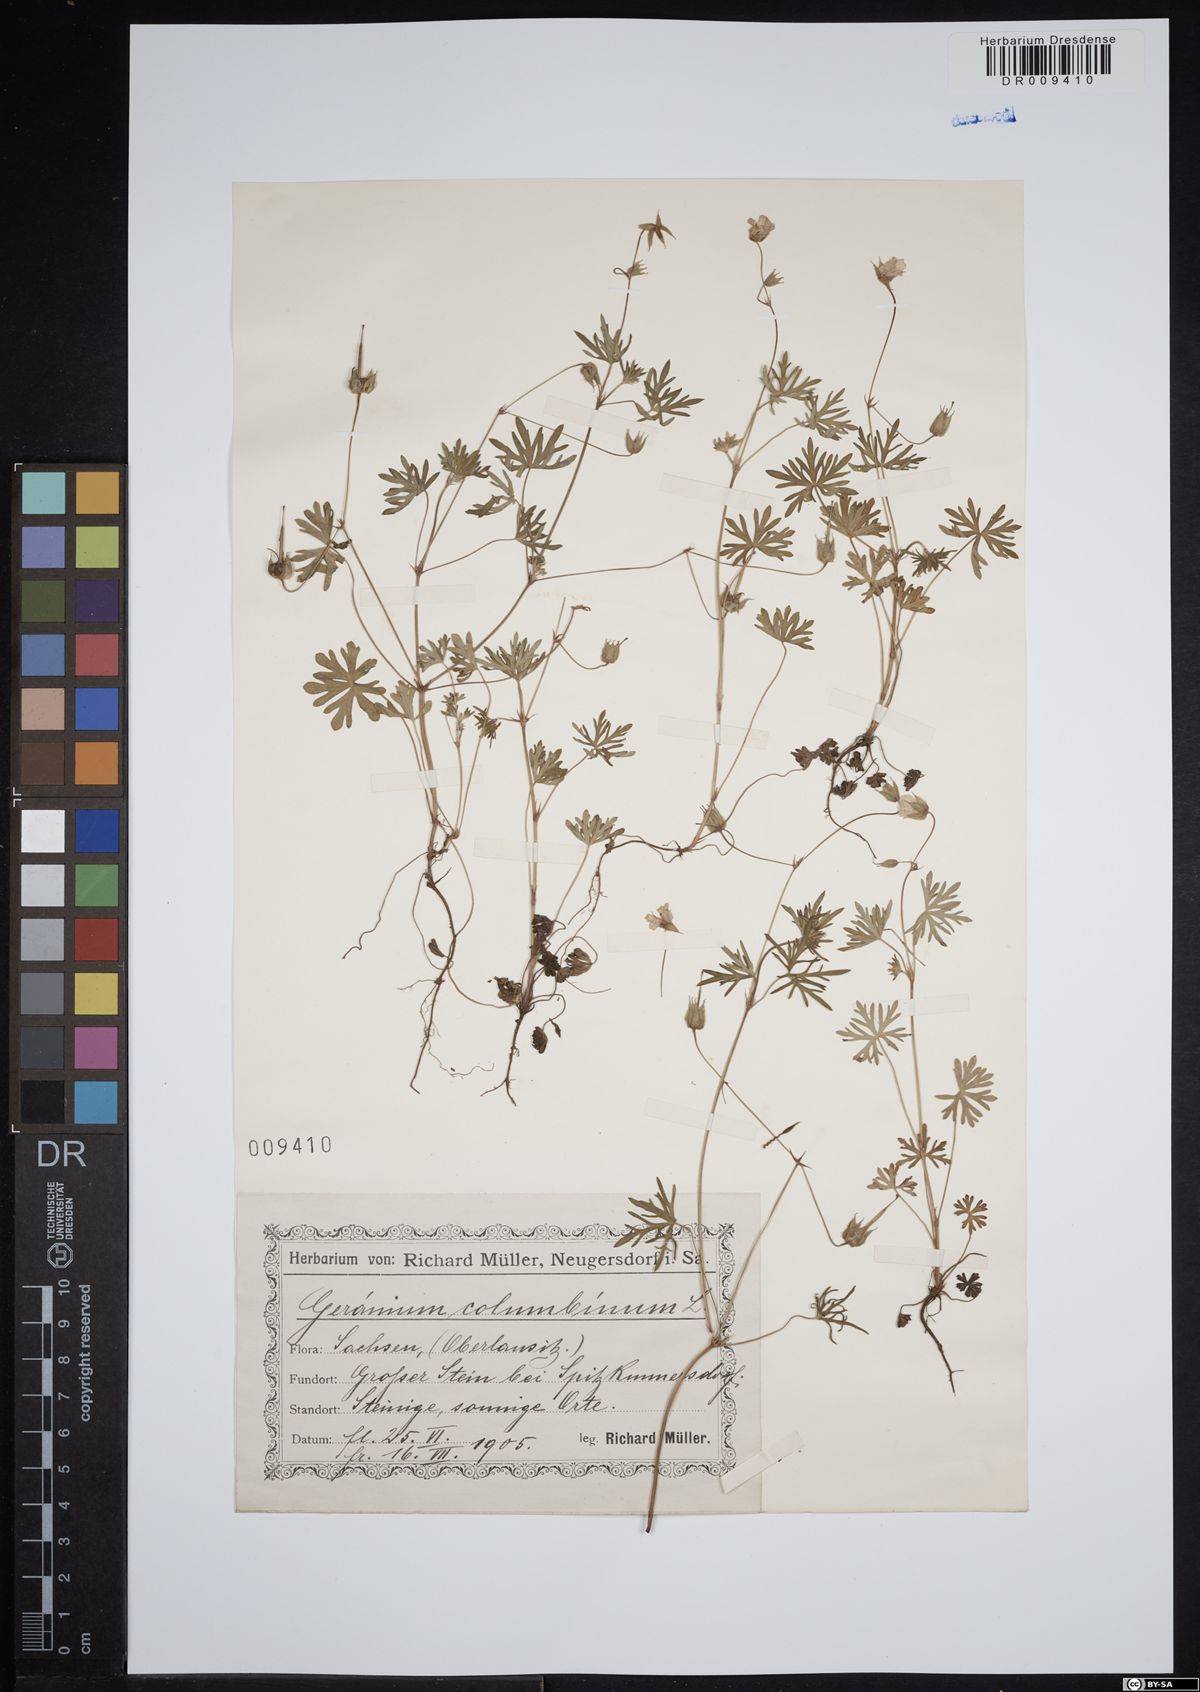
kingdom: Plantae
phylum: Tracheophyta
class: Magnoliopsida
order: Geraniales
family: Geraniaceae
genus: Geranium
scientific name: Geranium columbinum
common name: Long-stalked crane's-bill
